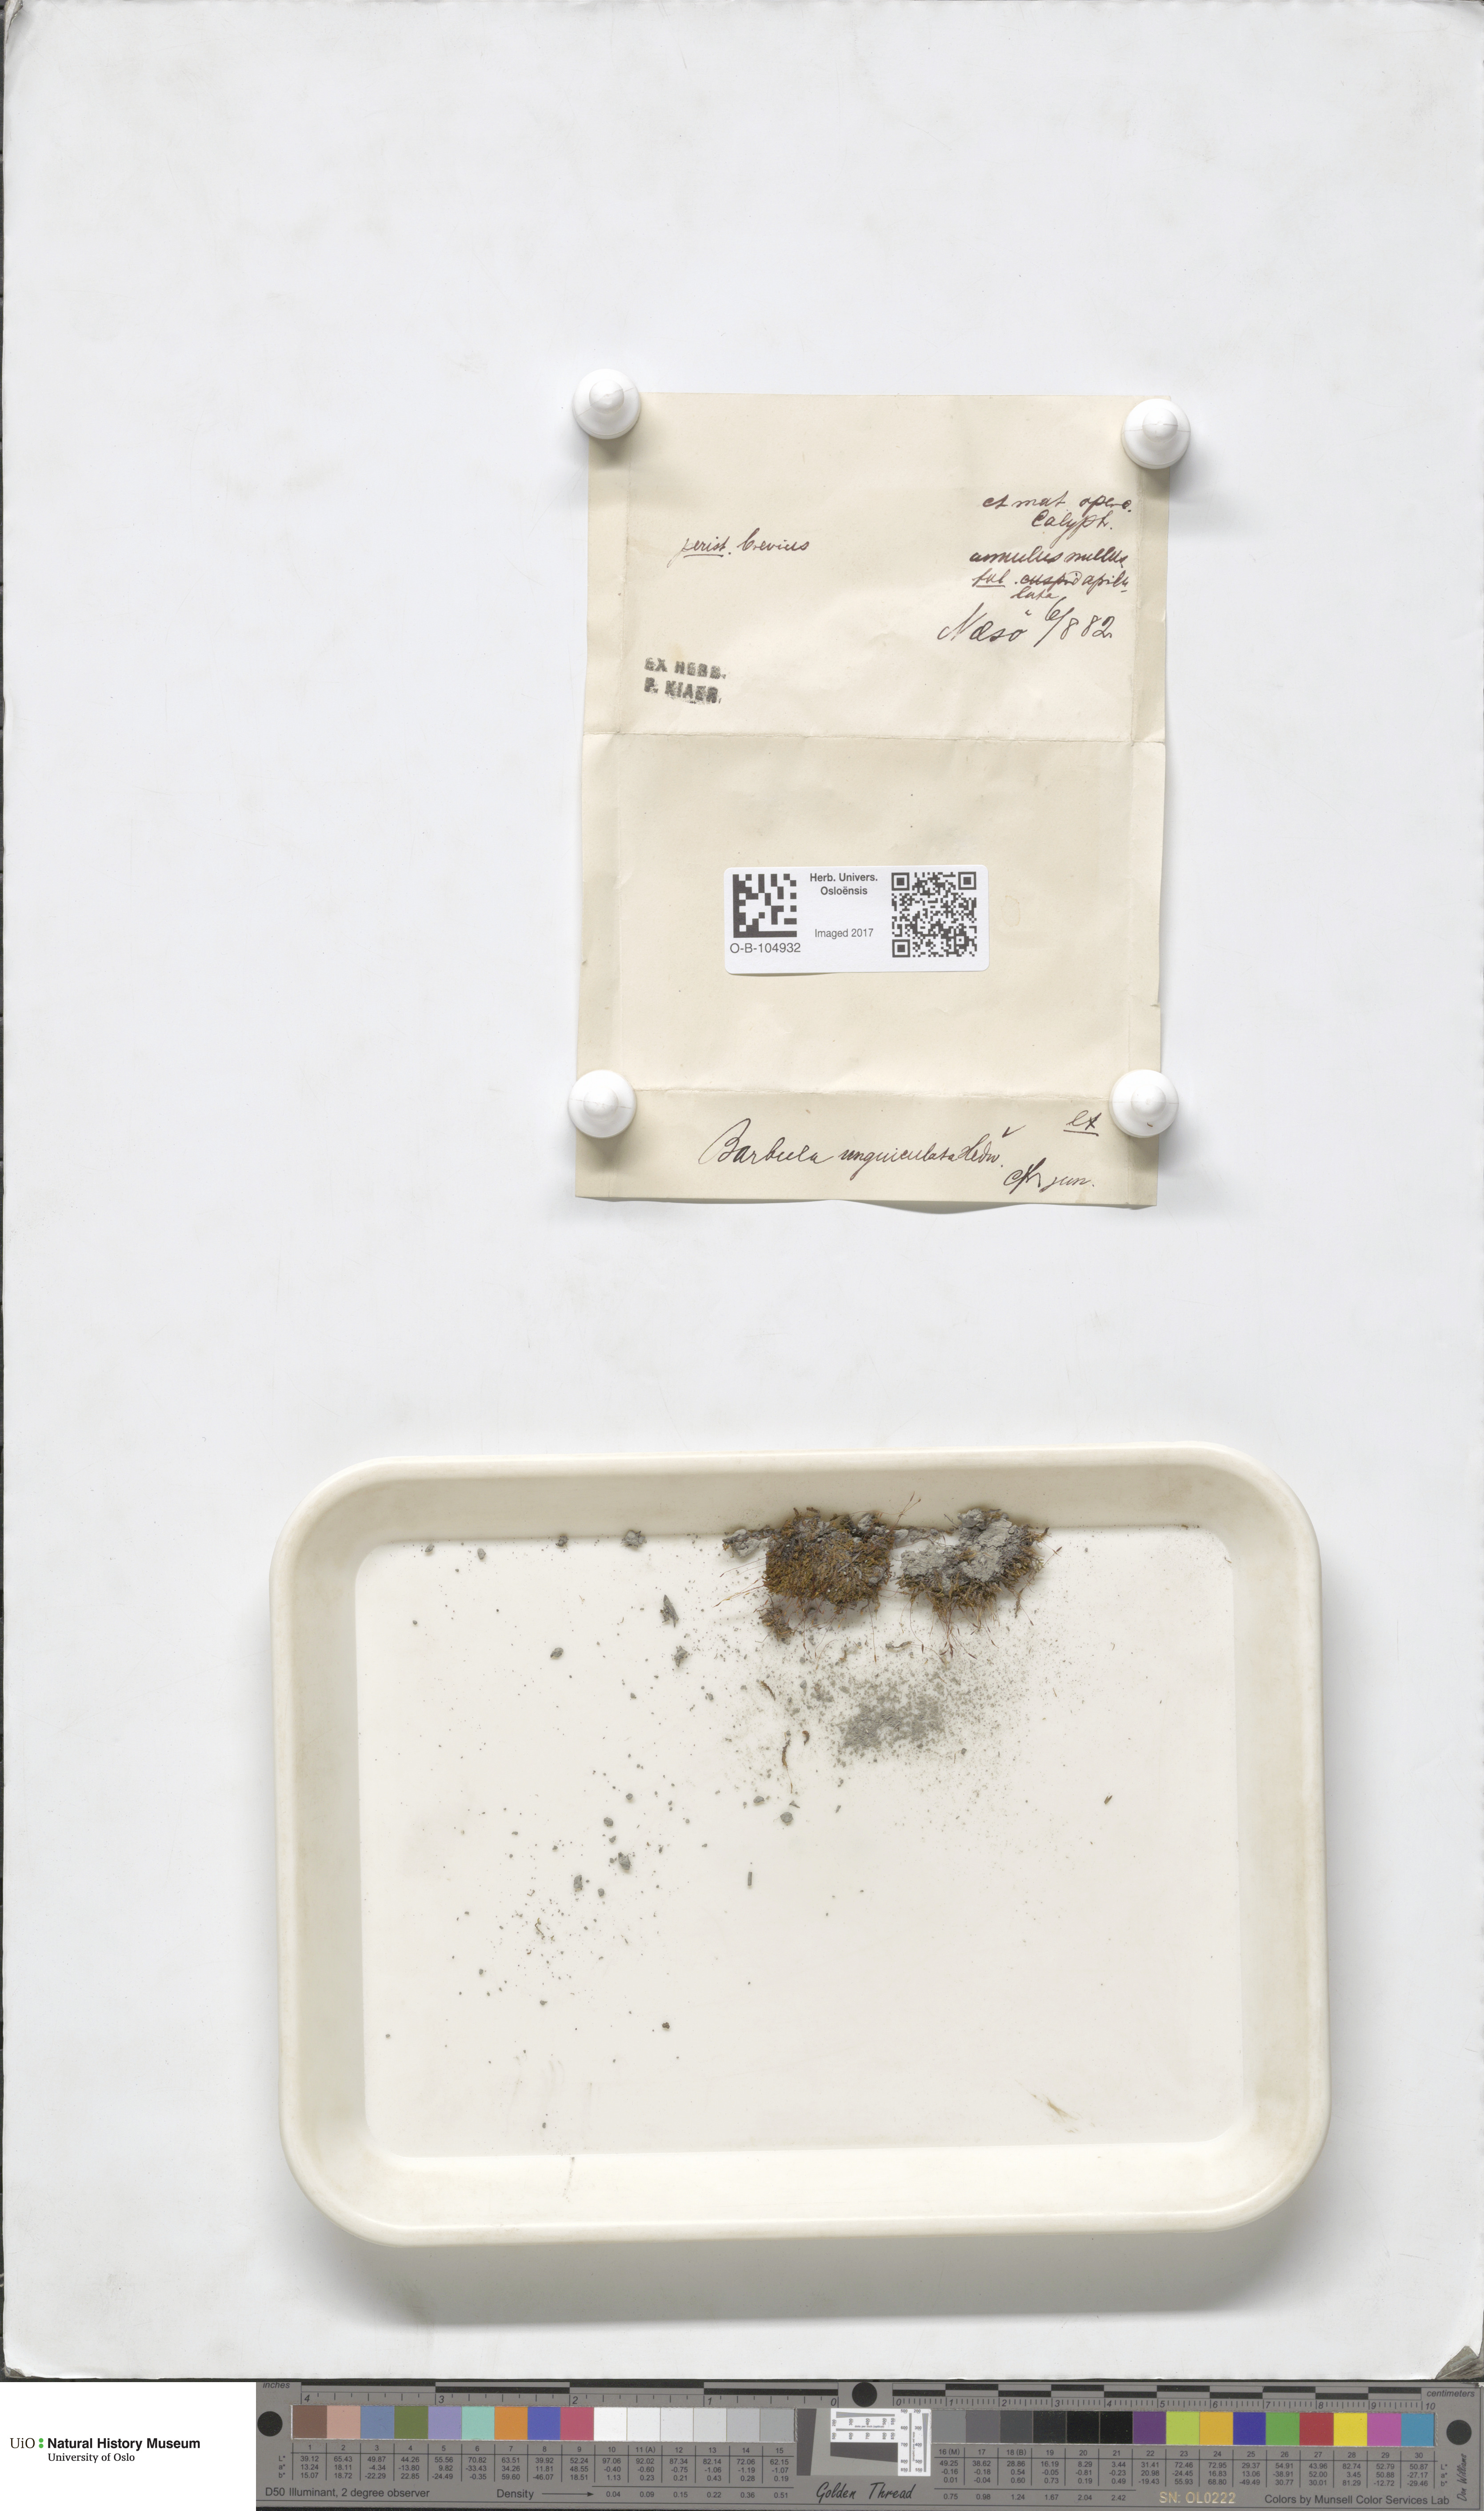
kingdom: Plantae
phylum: Bryophyta
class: Bryopsida
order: Pottiales
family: Pottiaceae
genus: Barbula
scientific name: Barbula unguiculata
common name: Prickly beard moss
